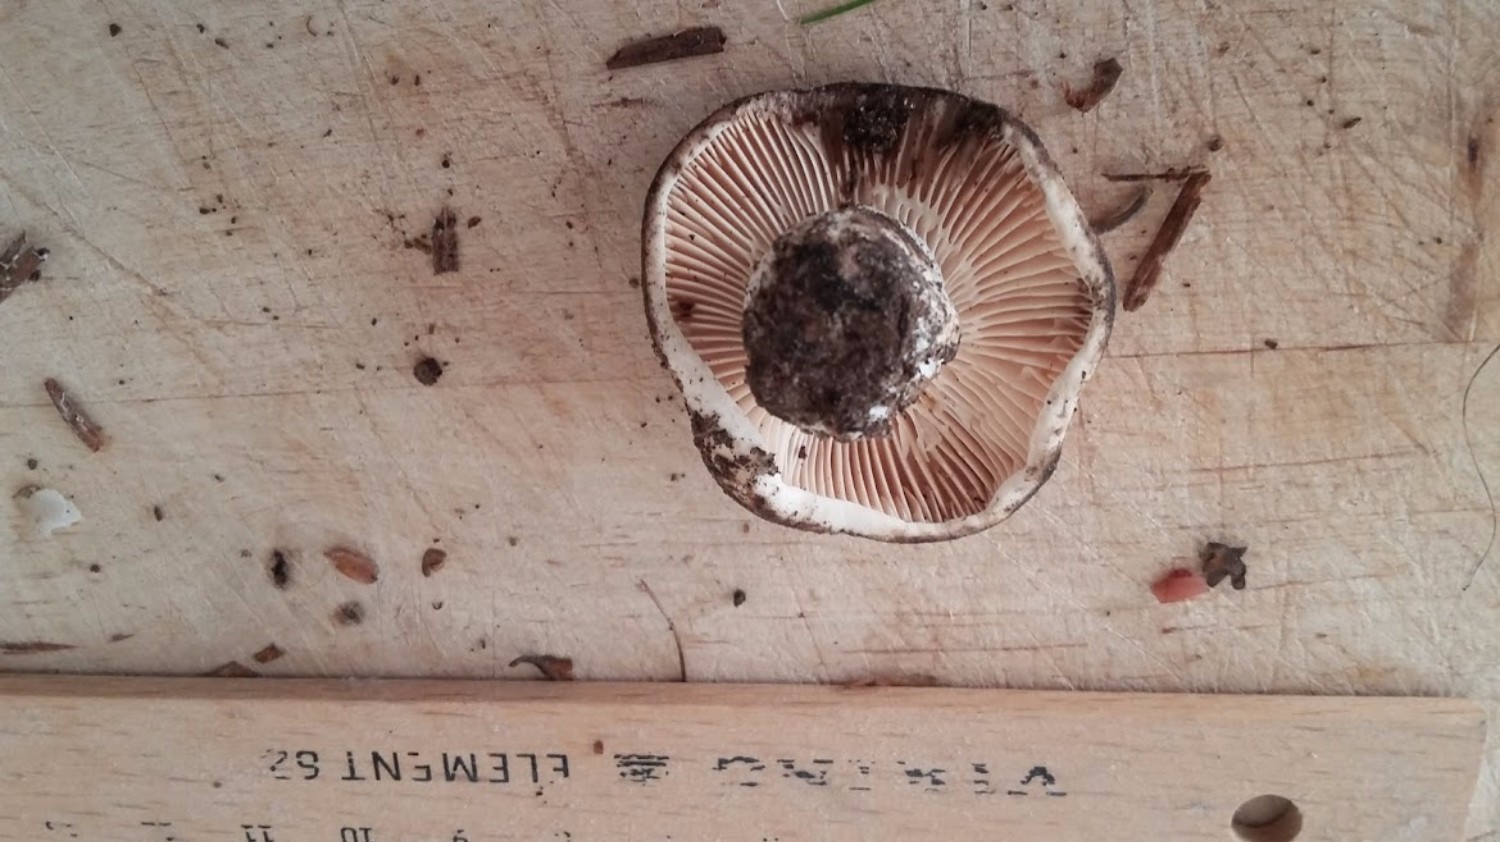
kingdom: Fungi
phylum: Basidiomycota
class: Agaricomycetes
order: Russulales
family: Russulaceae
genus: Russula
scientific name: Russula adusta
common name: sværtende skørhat
